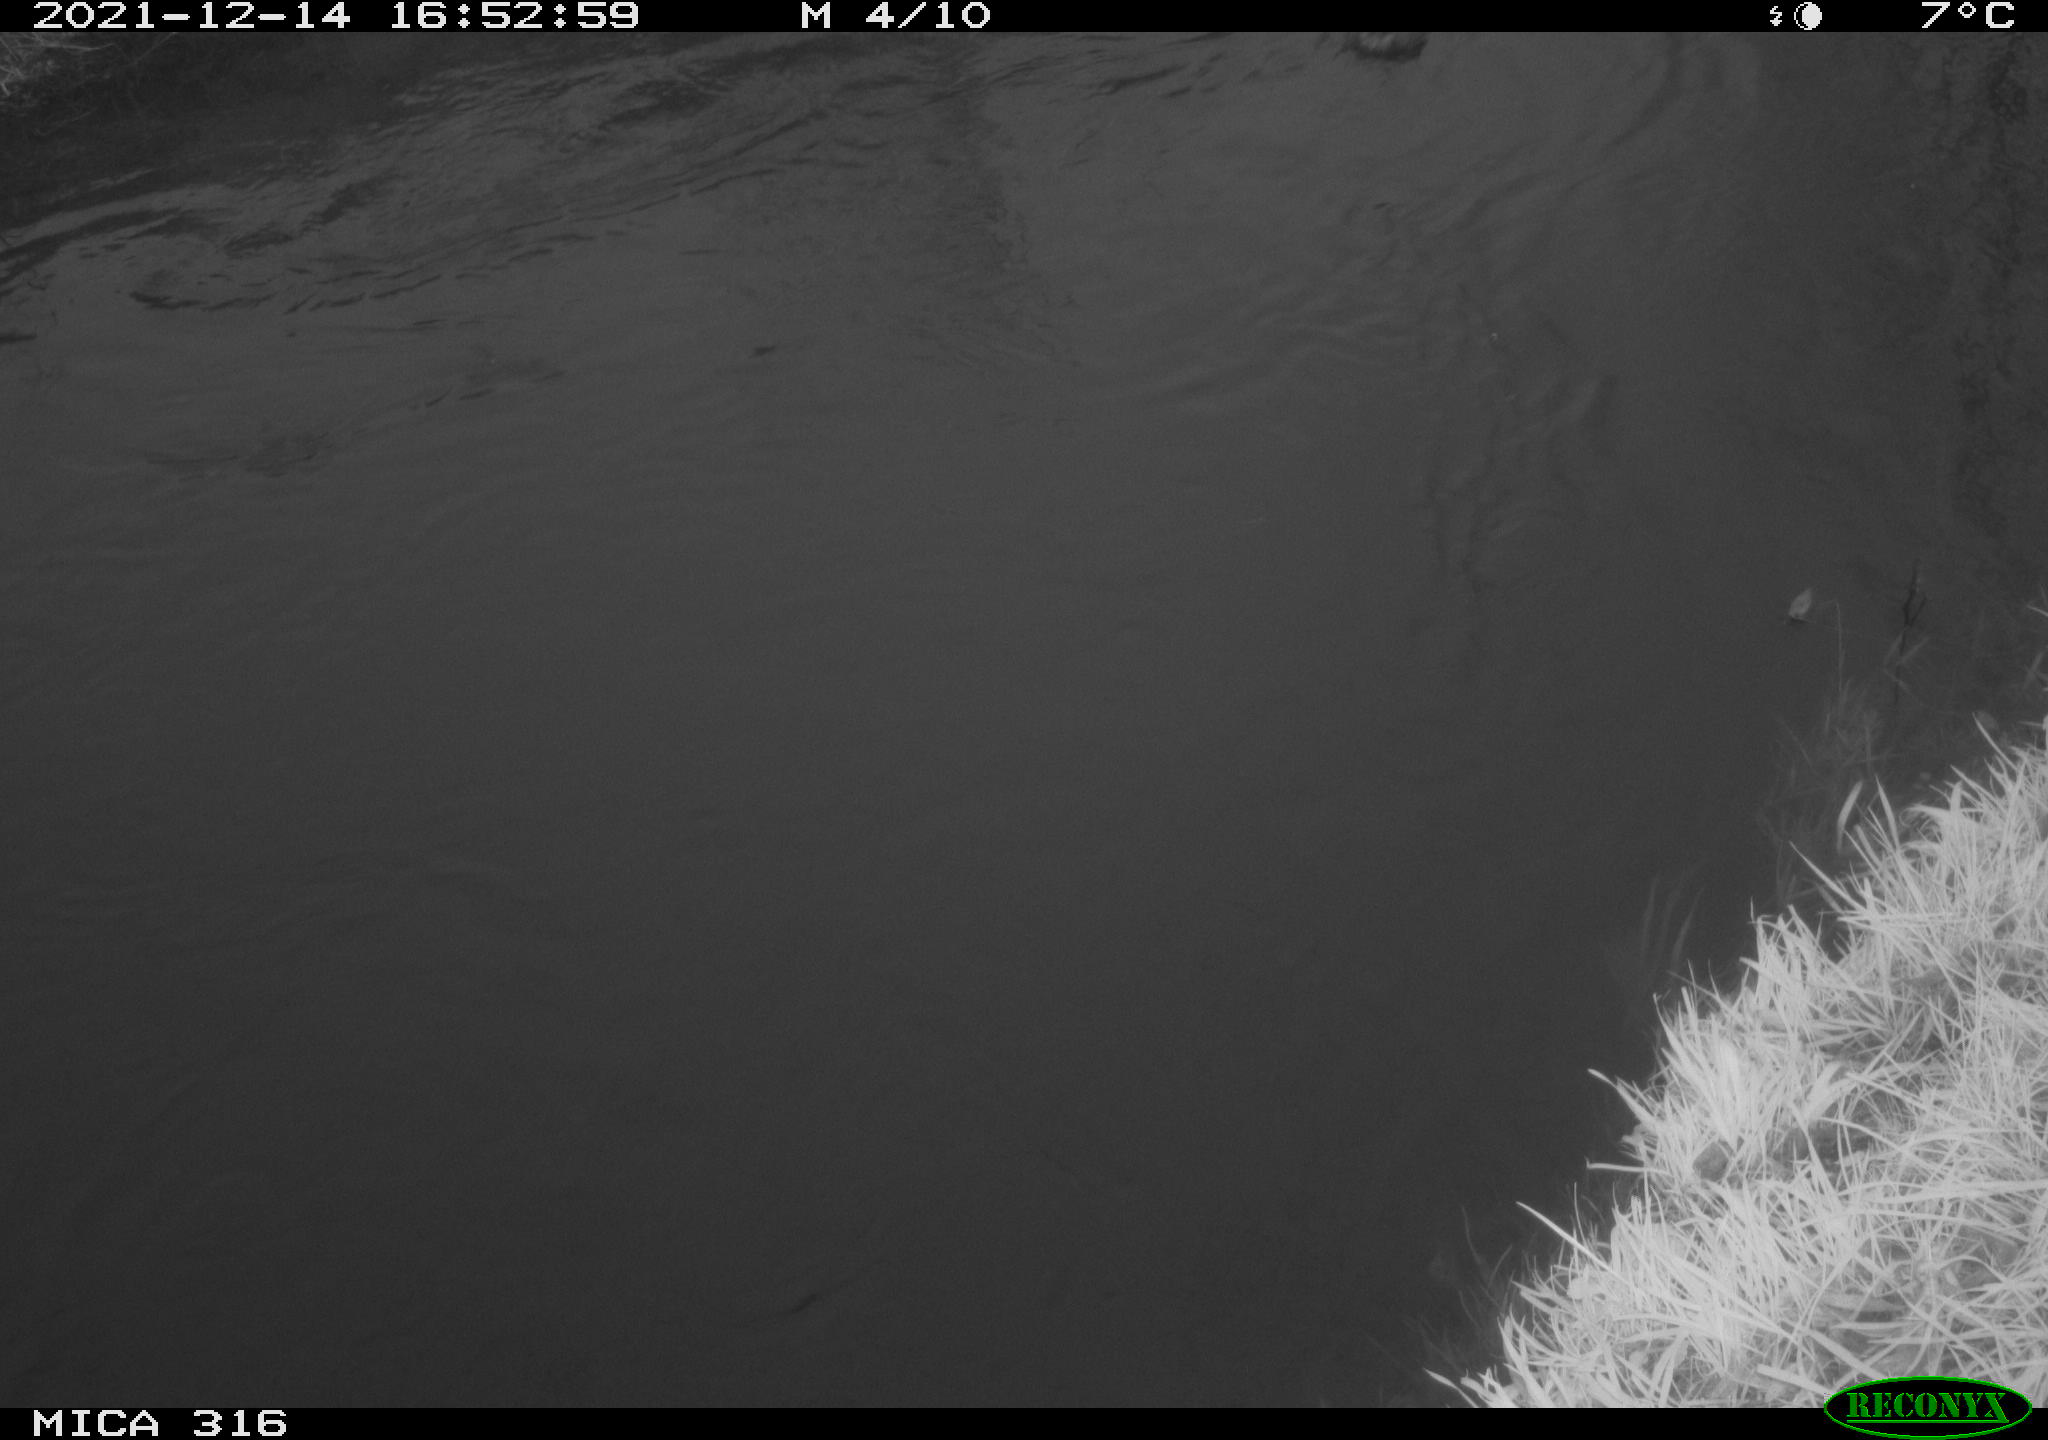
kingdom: Animalia
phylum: Chordata
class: Aves
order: Anseriformes
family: Anatidae
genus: Anas
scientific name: Anas
